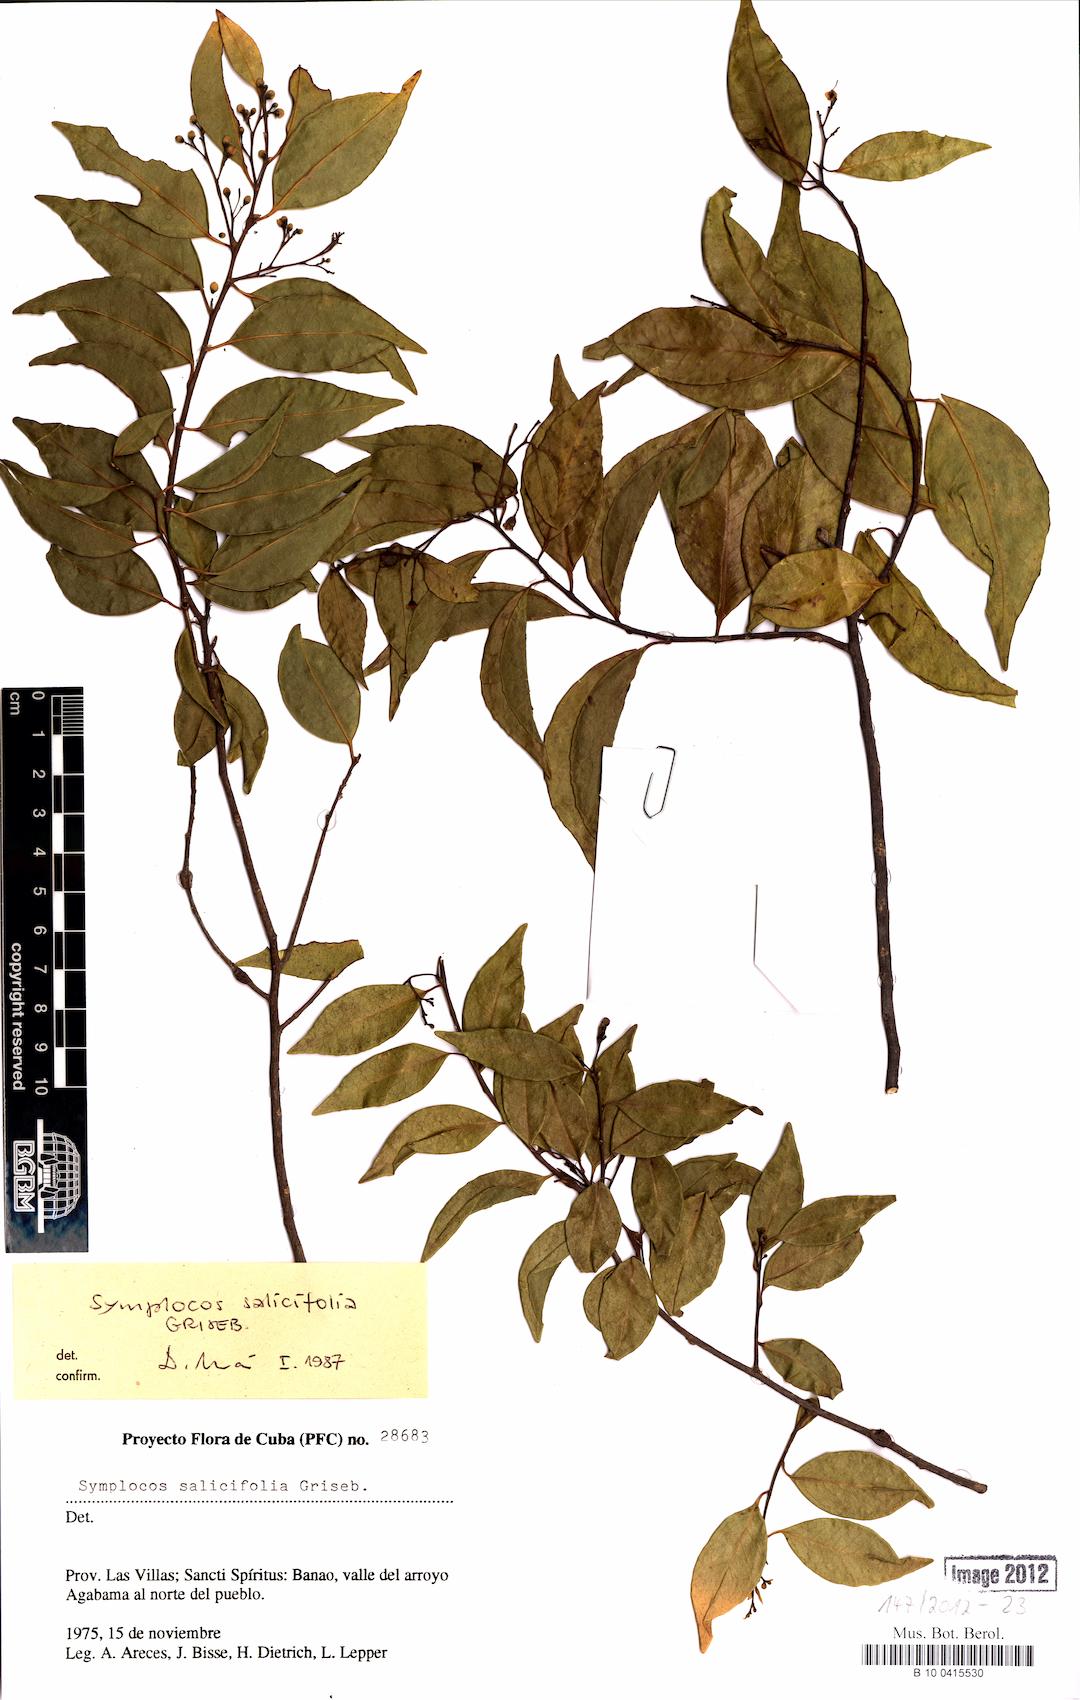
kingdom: Plantae
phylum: Tracheophyta
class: Magnoliopsida
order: Ericales
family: Symplocaceae
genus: Symplocos
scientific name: Symplocos salicifolia
